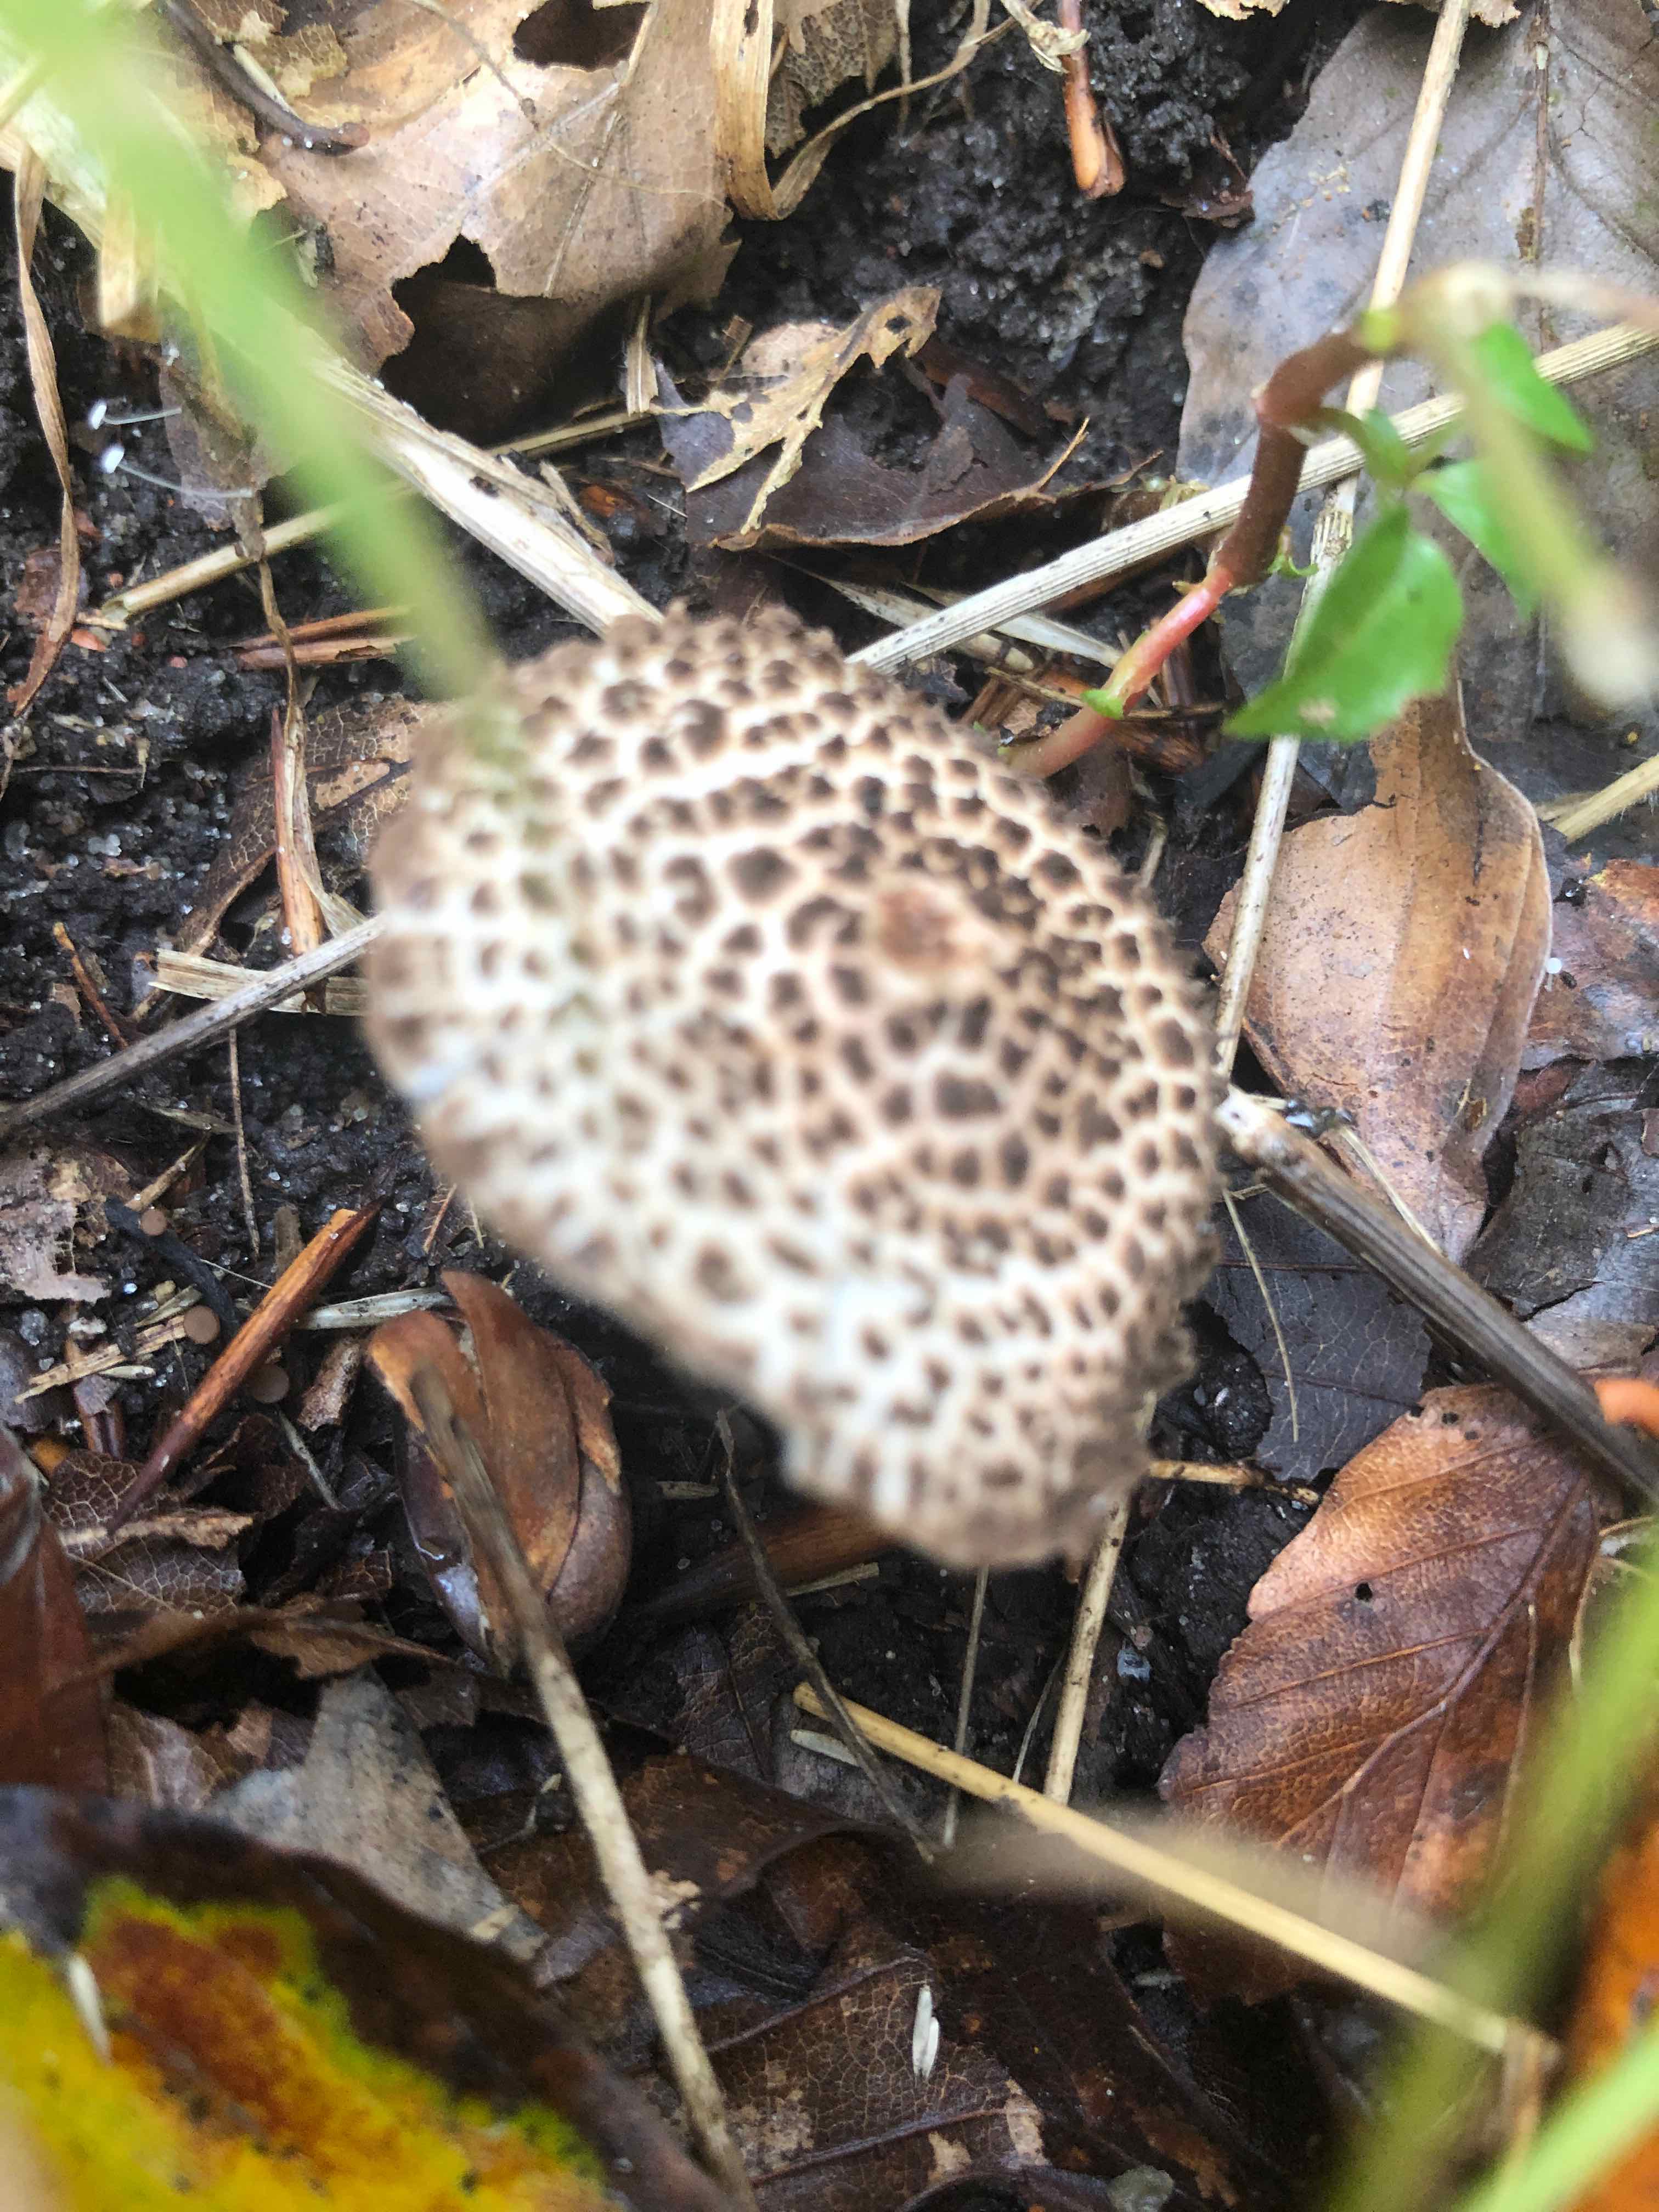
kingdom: Fungi
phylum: Basidiomycota
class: Agaricomycetes
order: Agaricales
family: Agaricaceae
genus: Echinoderma
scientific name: Echinoderma
